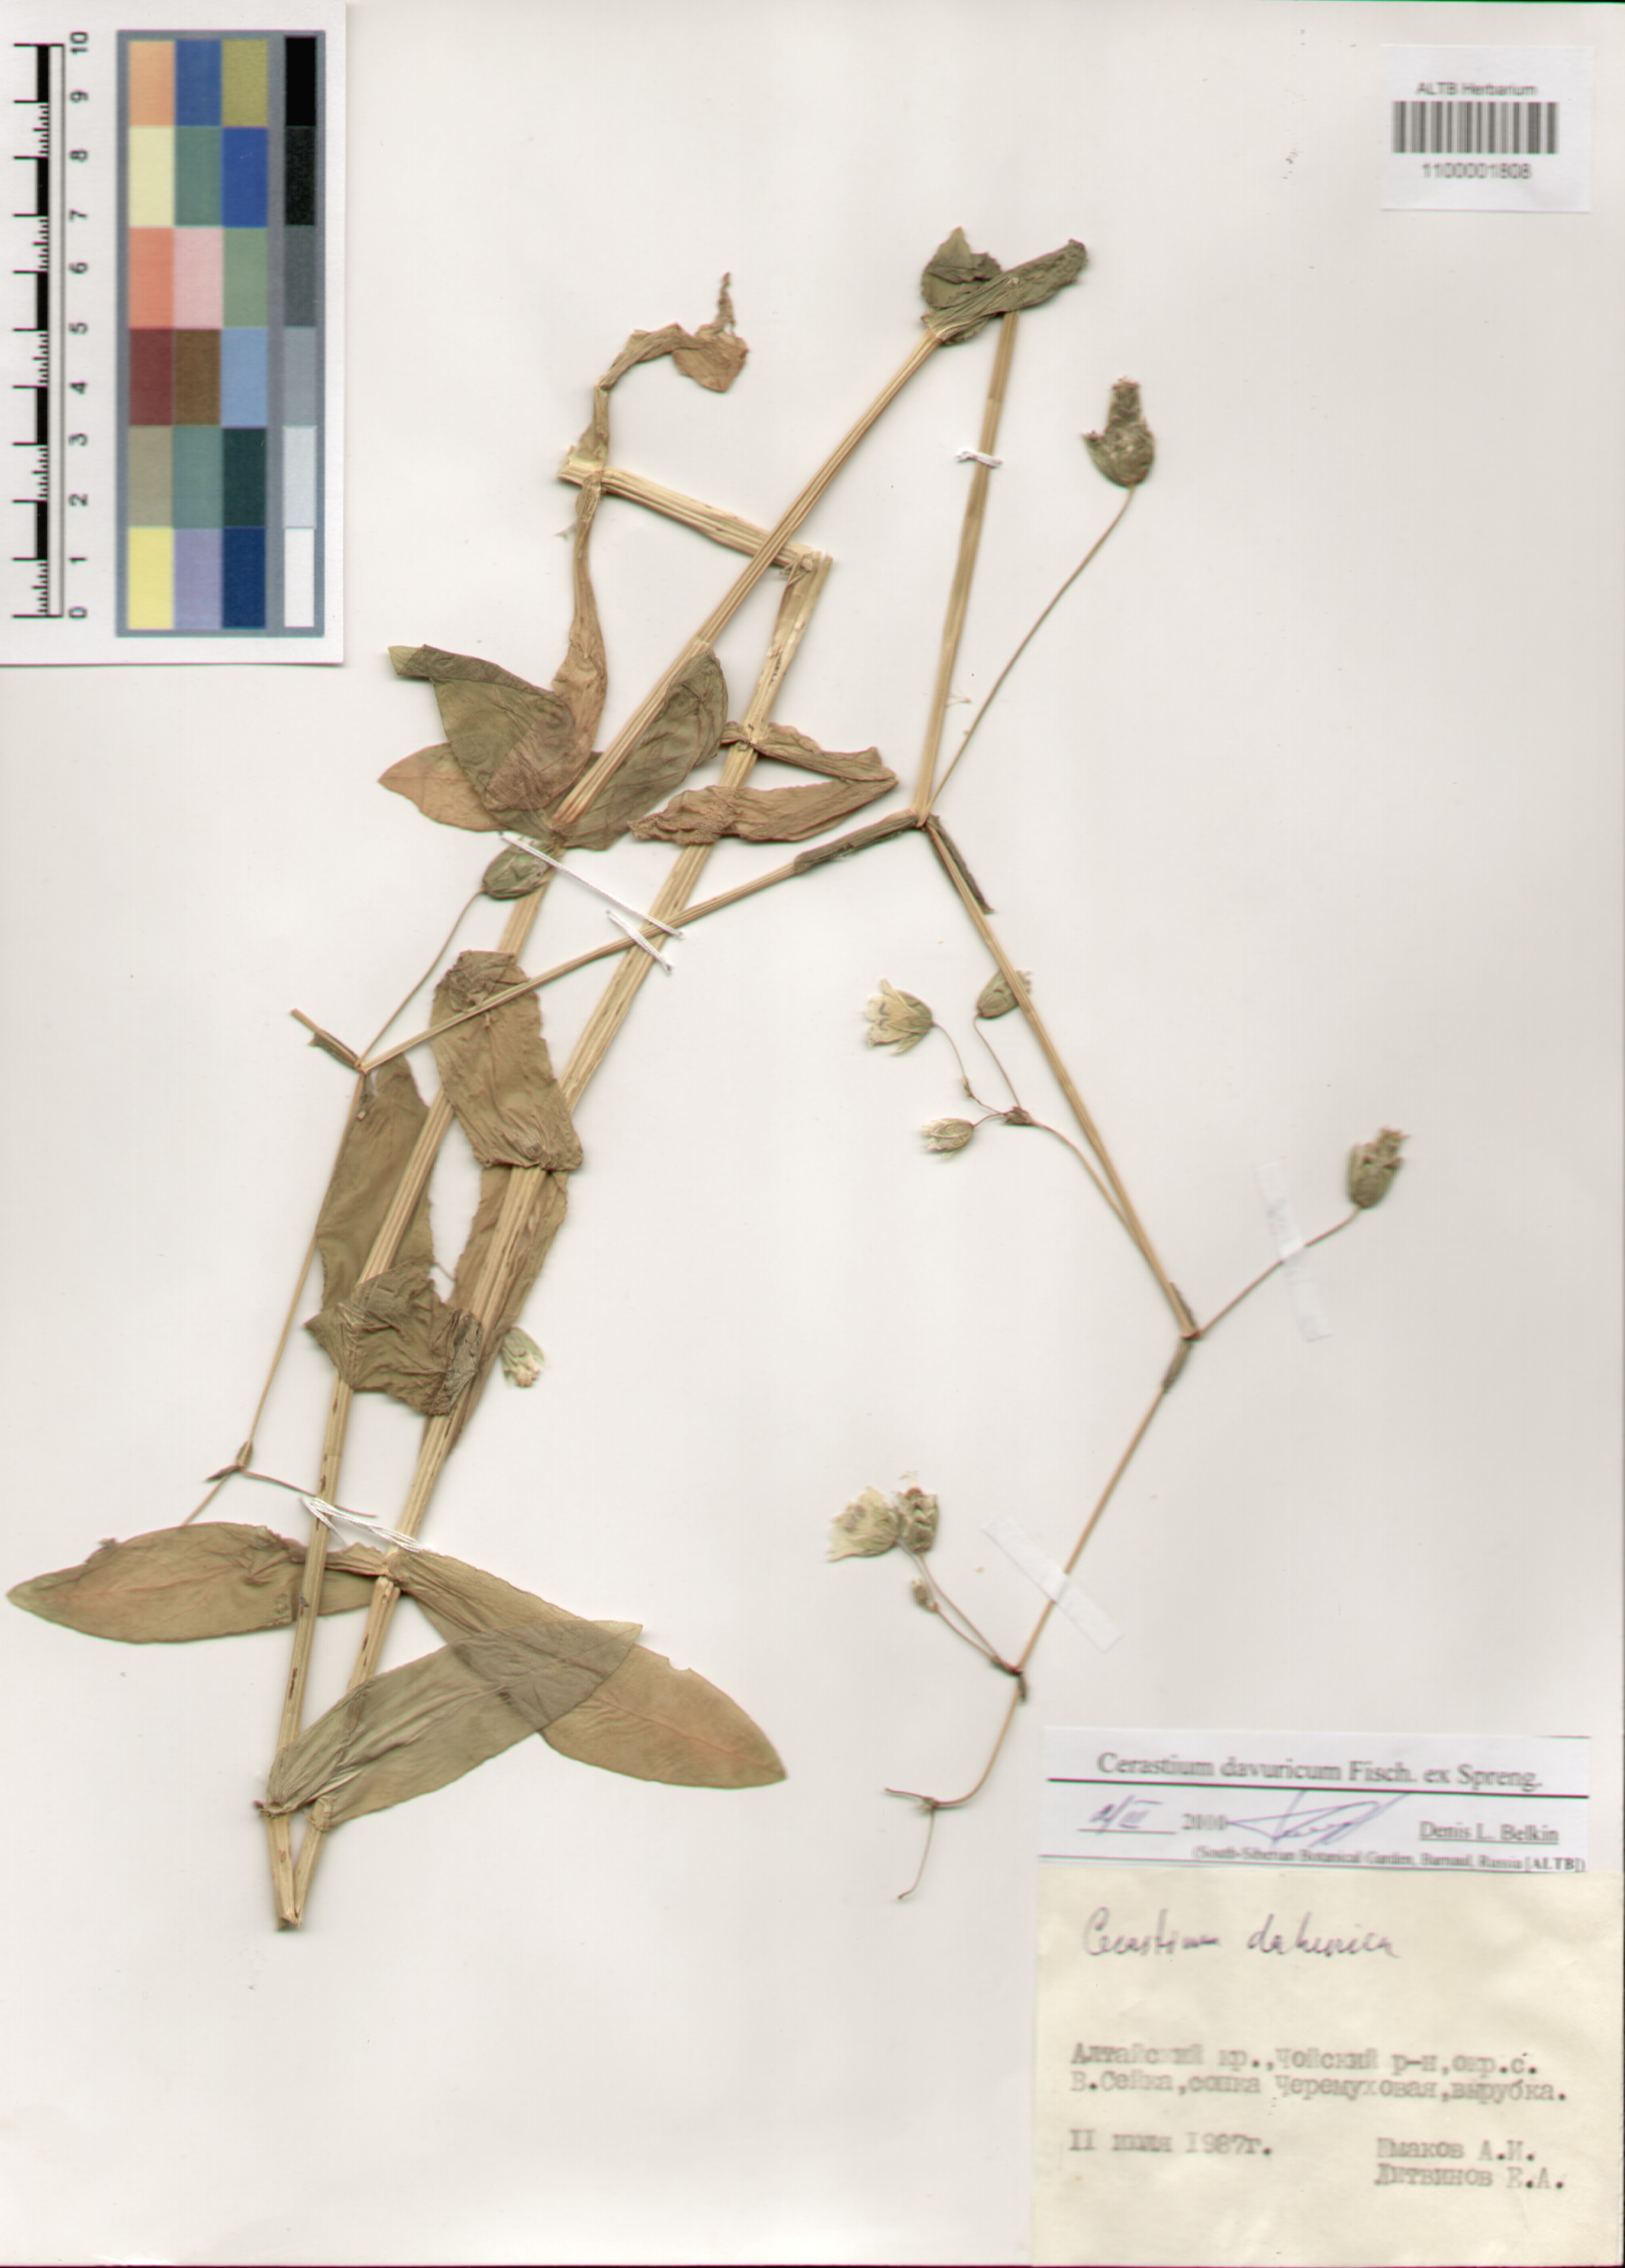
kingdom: Plantae
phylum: Tracheophyta
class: Magnoliopsida
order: Caryophyllales
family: Caryophyllaceae
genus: Dichodon
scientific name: Dichodon davuricum
